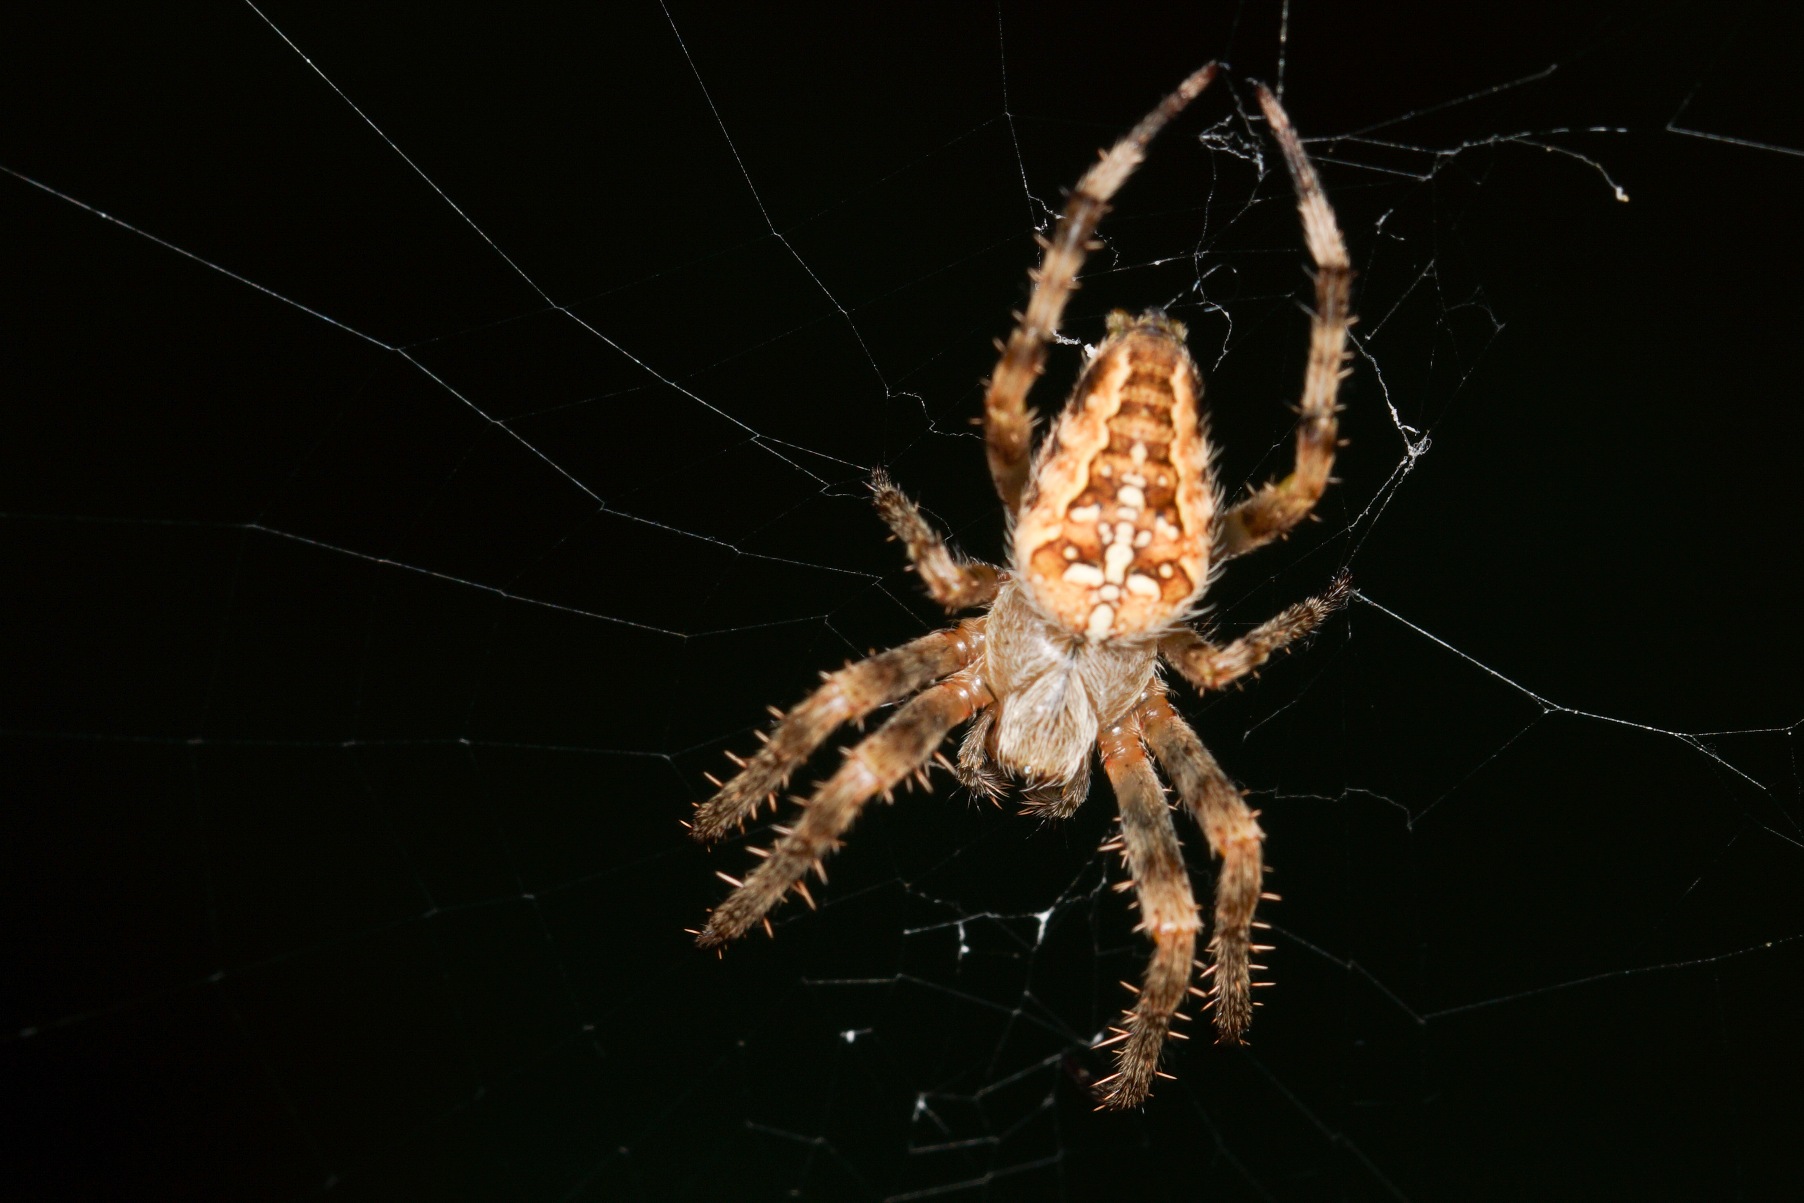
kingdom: Animalia
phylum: Arthropoda
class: Arachnida
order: Araneae
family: Araneidae
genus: Araneus
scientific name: Araneus diadematus
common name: Korsedderkop
